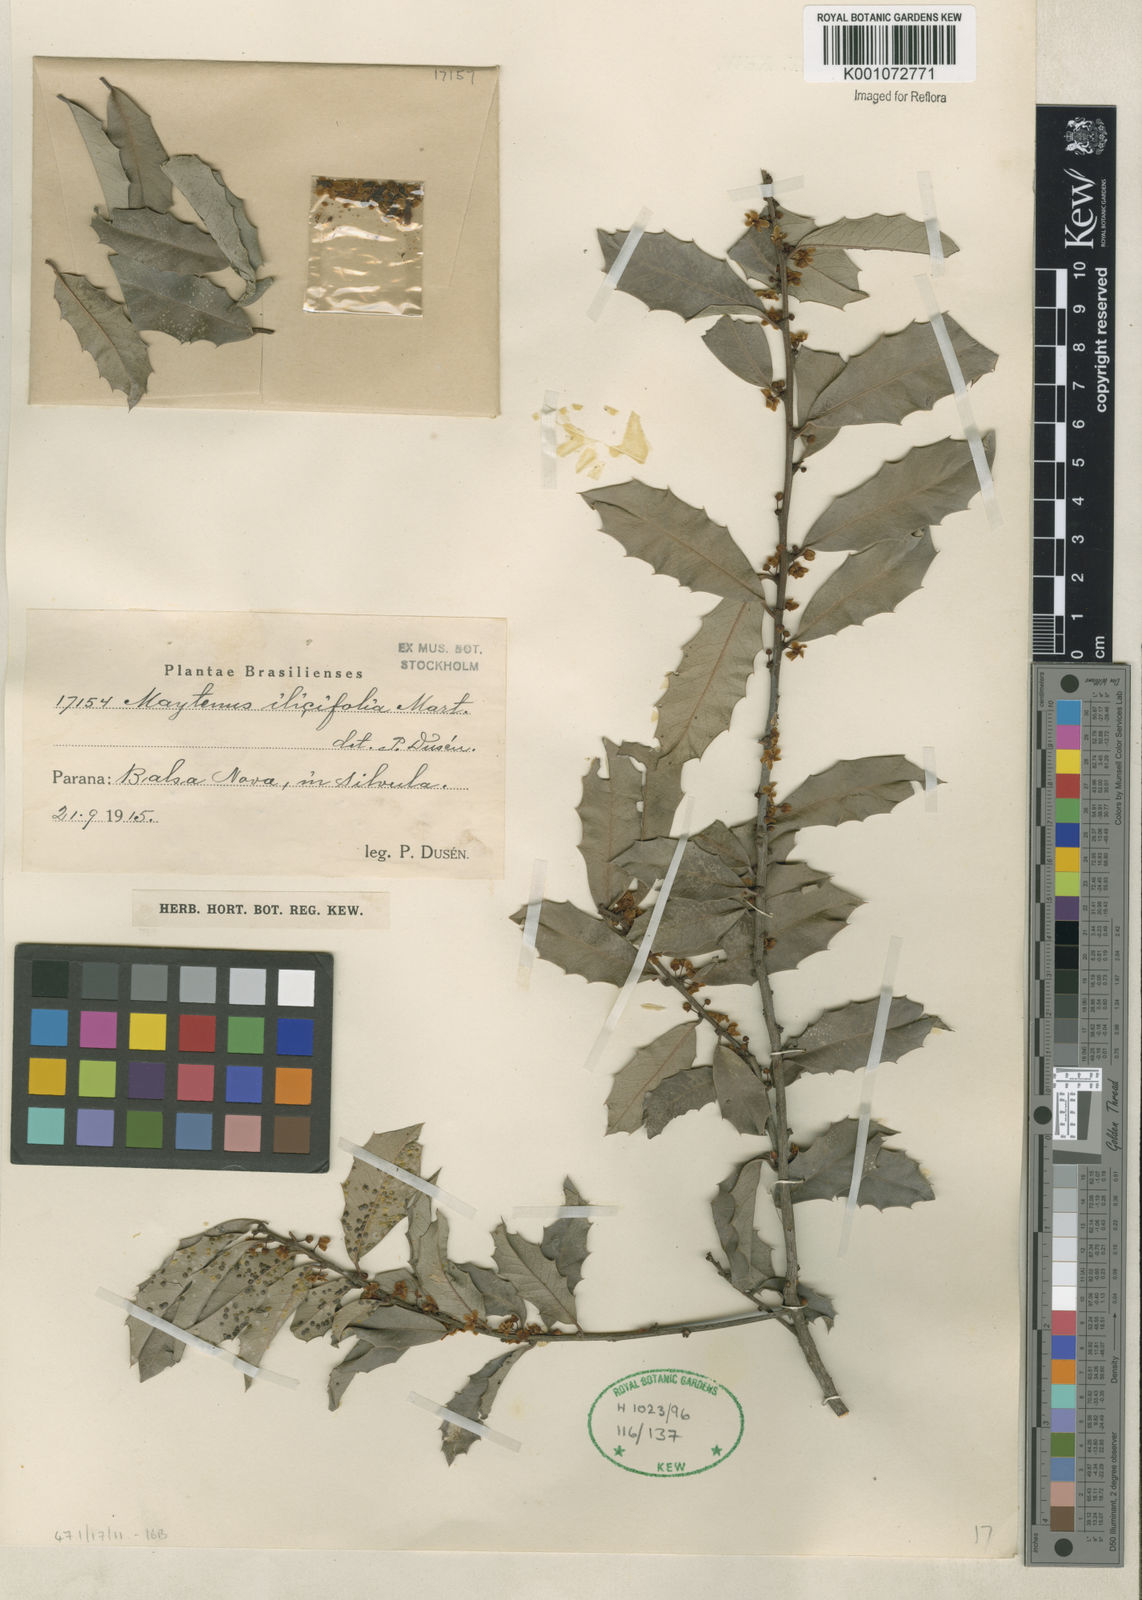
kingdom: Plantae
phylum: Tracheophyta
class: Magnoliopsida
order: Celastrales
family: Celastraceae
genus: Monteverdia
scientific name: Monteverdia ilicifolia
